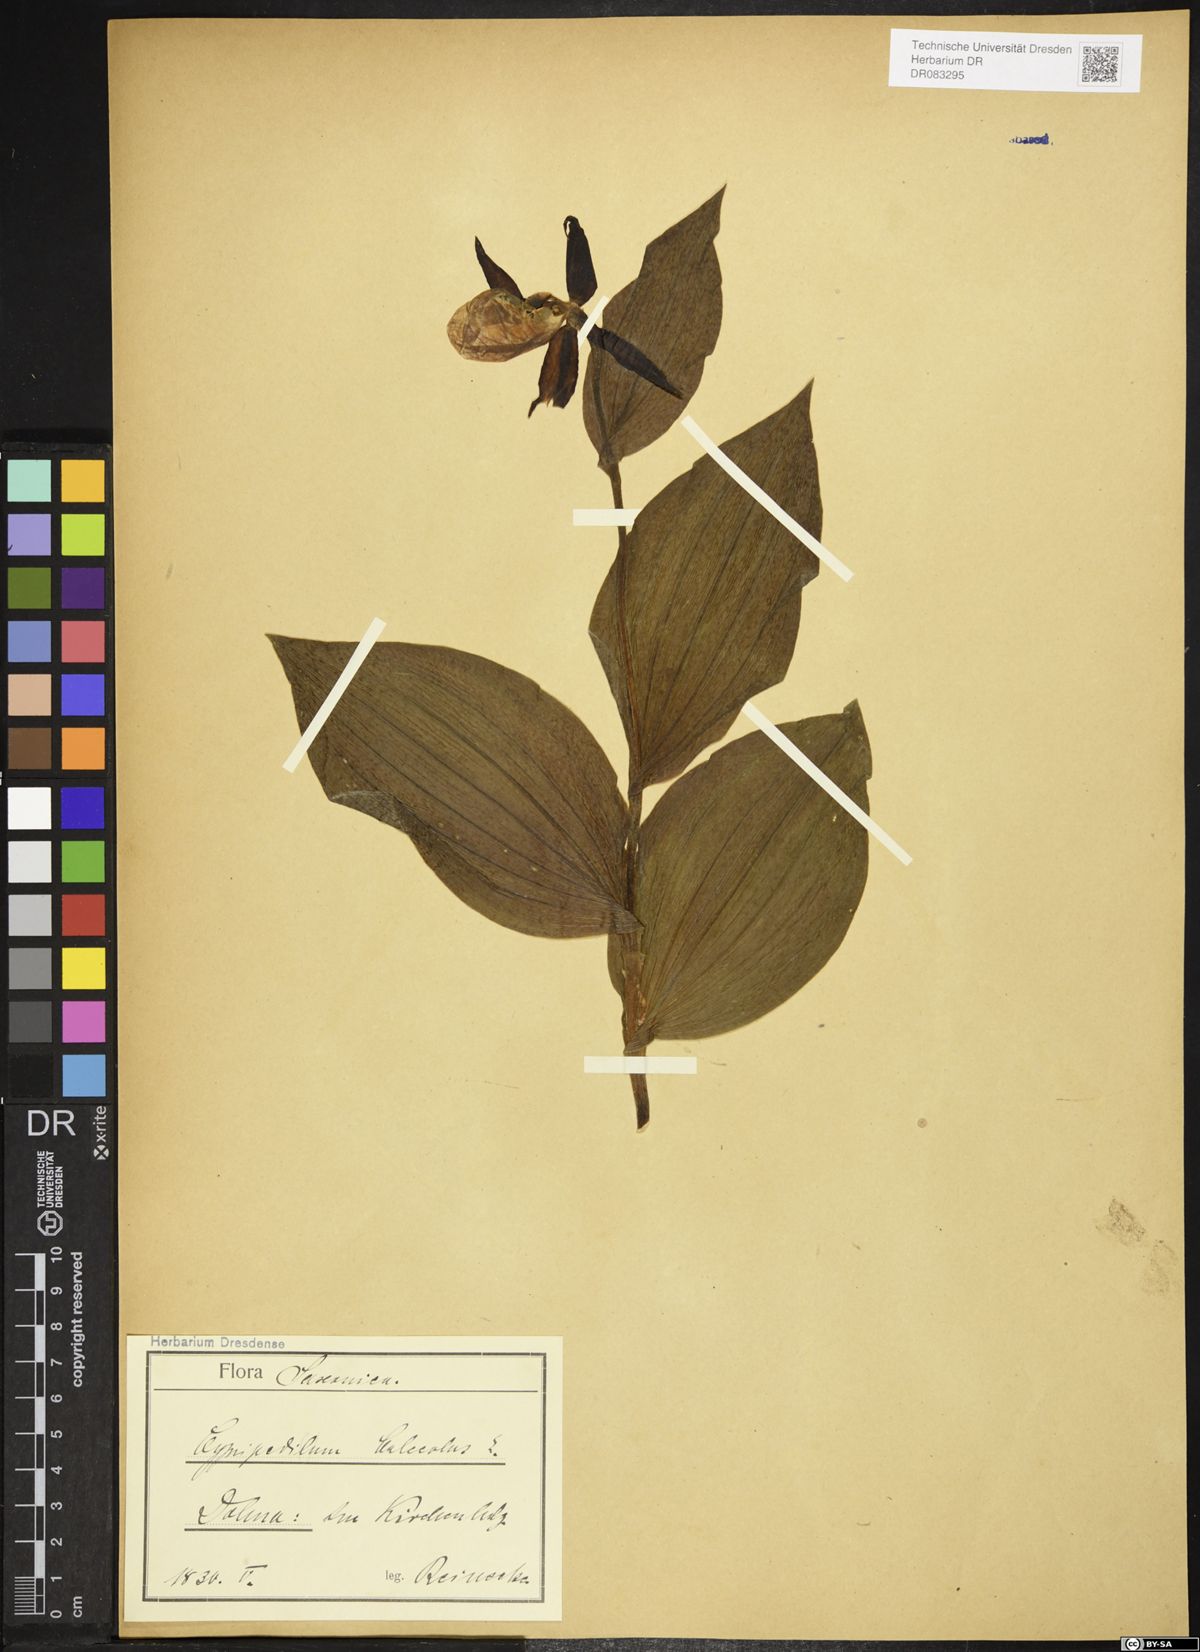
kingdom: Plantae
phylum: Tracheophyta
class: Liliopsida
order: Asparagales
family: Orchidaceae
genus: Cypripedium
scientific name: Cypripedium calceolus
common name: Lady's-slipper
